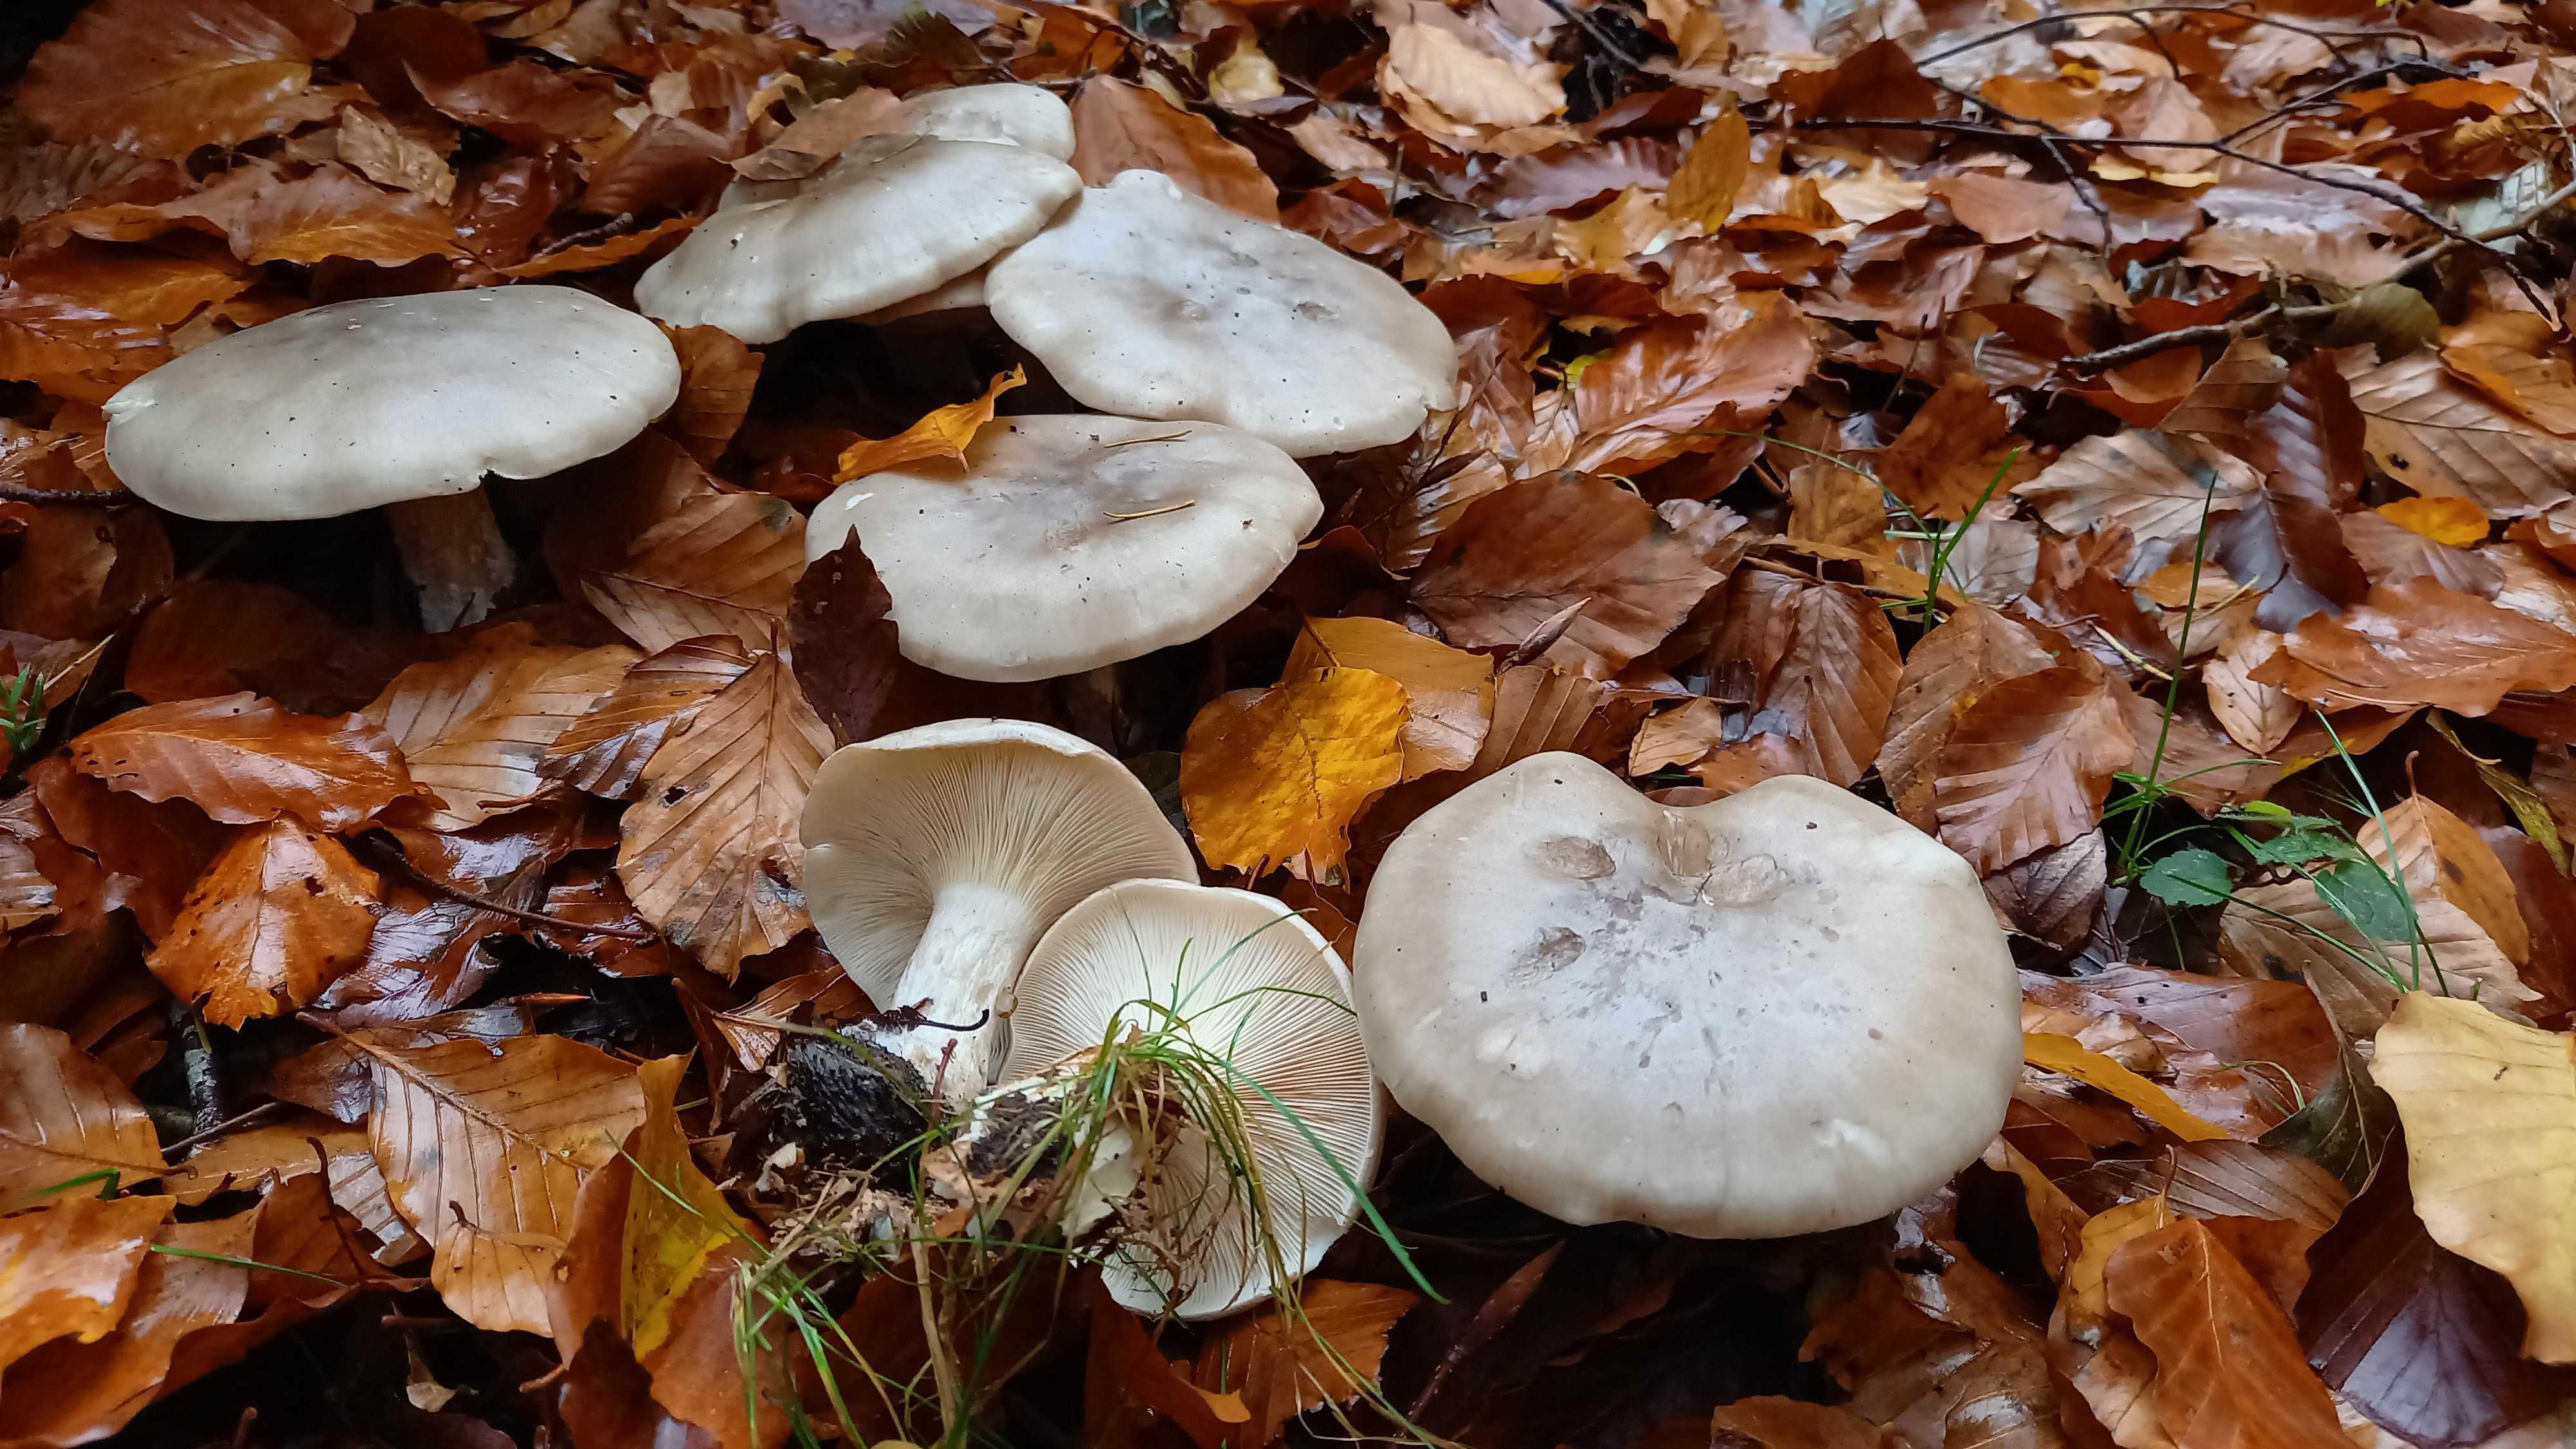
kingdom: Fungi
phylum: Basidiomycota
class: Agaricomycetes
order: Agaricales
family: Tricholomataceae
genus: Clitocybe
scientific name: Clitocybe nebularis
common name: tåge-tragthat
